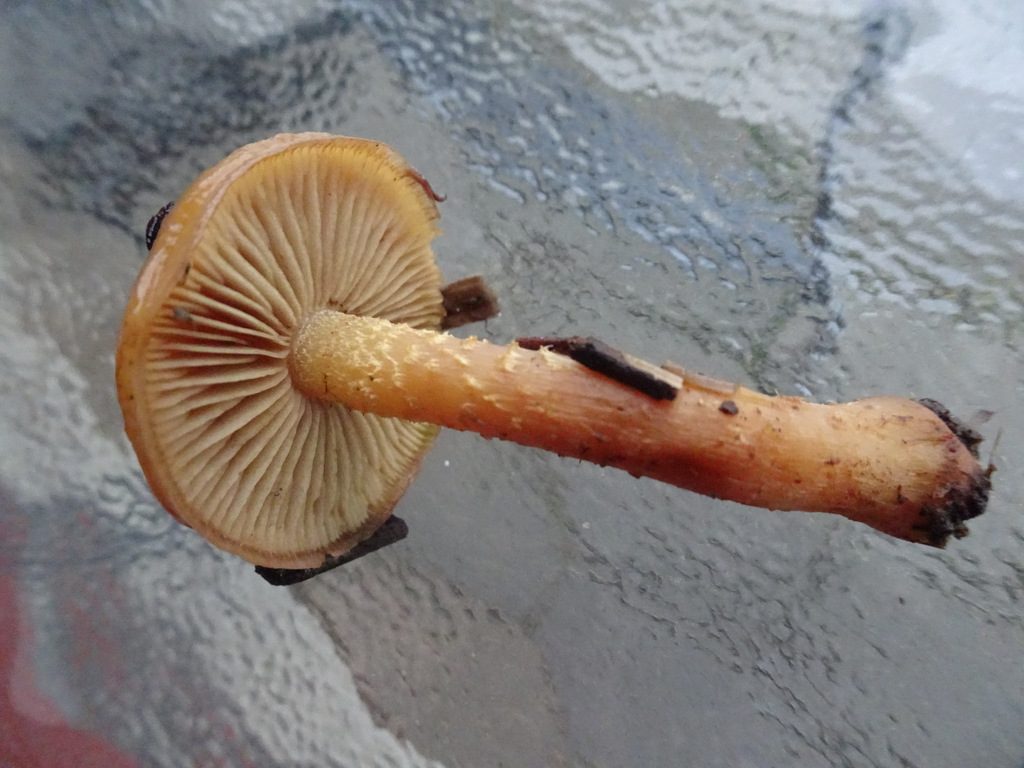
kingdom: Fungi
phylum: Basidiomycota
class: Agaricomycetes
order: Agaricales
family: Strophariaceae
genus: Pholiota
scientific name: Pholiota mixta
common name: nåle-skælhat
